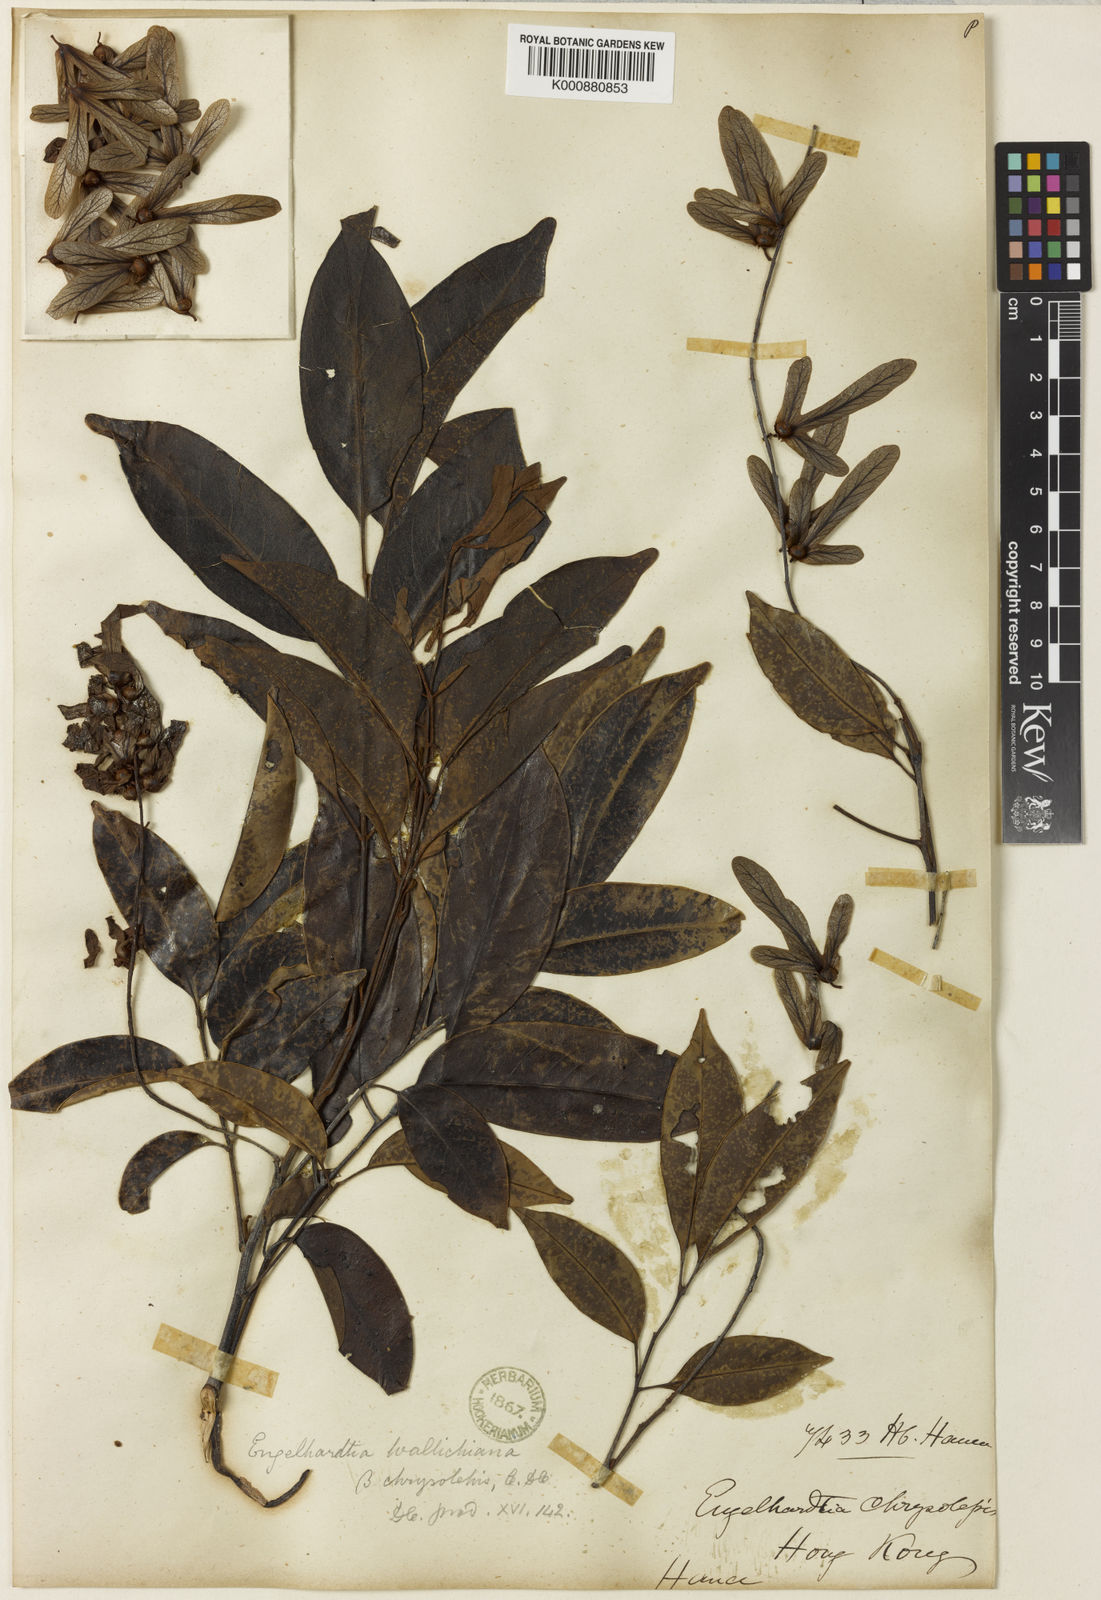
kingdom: Plantae
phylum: Tracheophyta
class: Magnoliopsida
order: Fagales
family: Juglandaceae
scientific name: Juglandaceae
